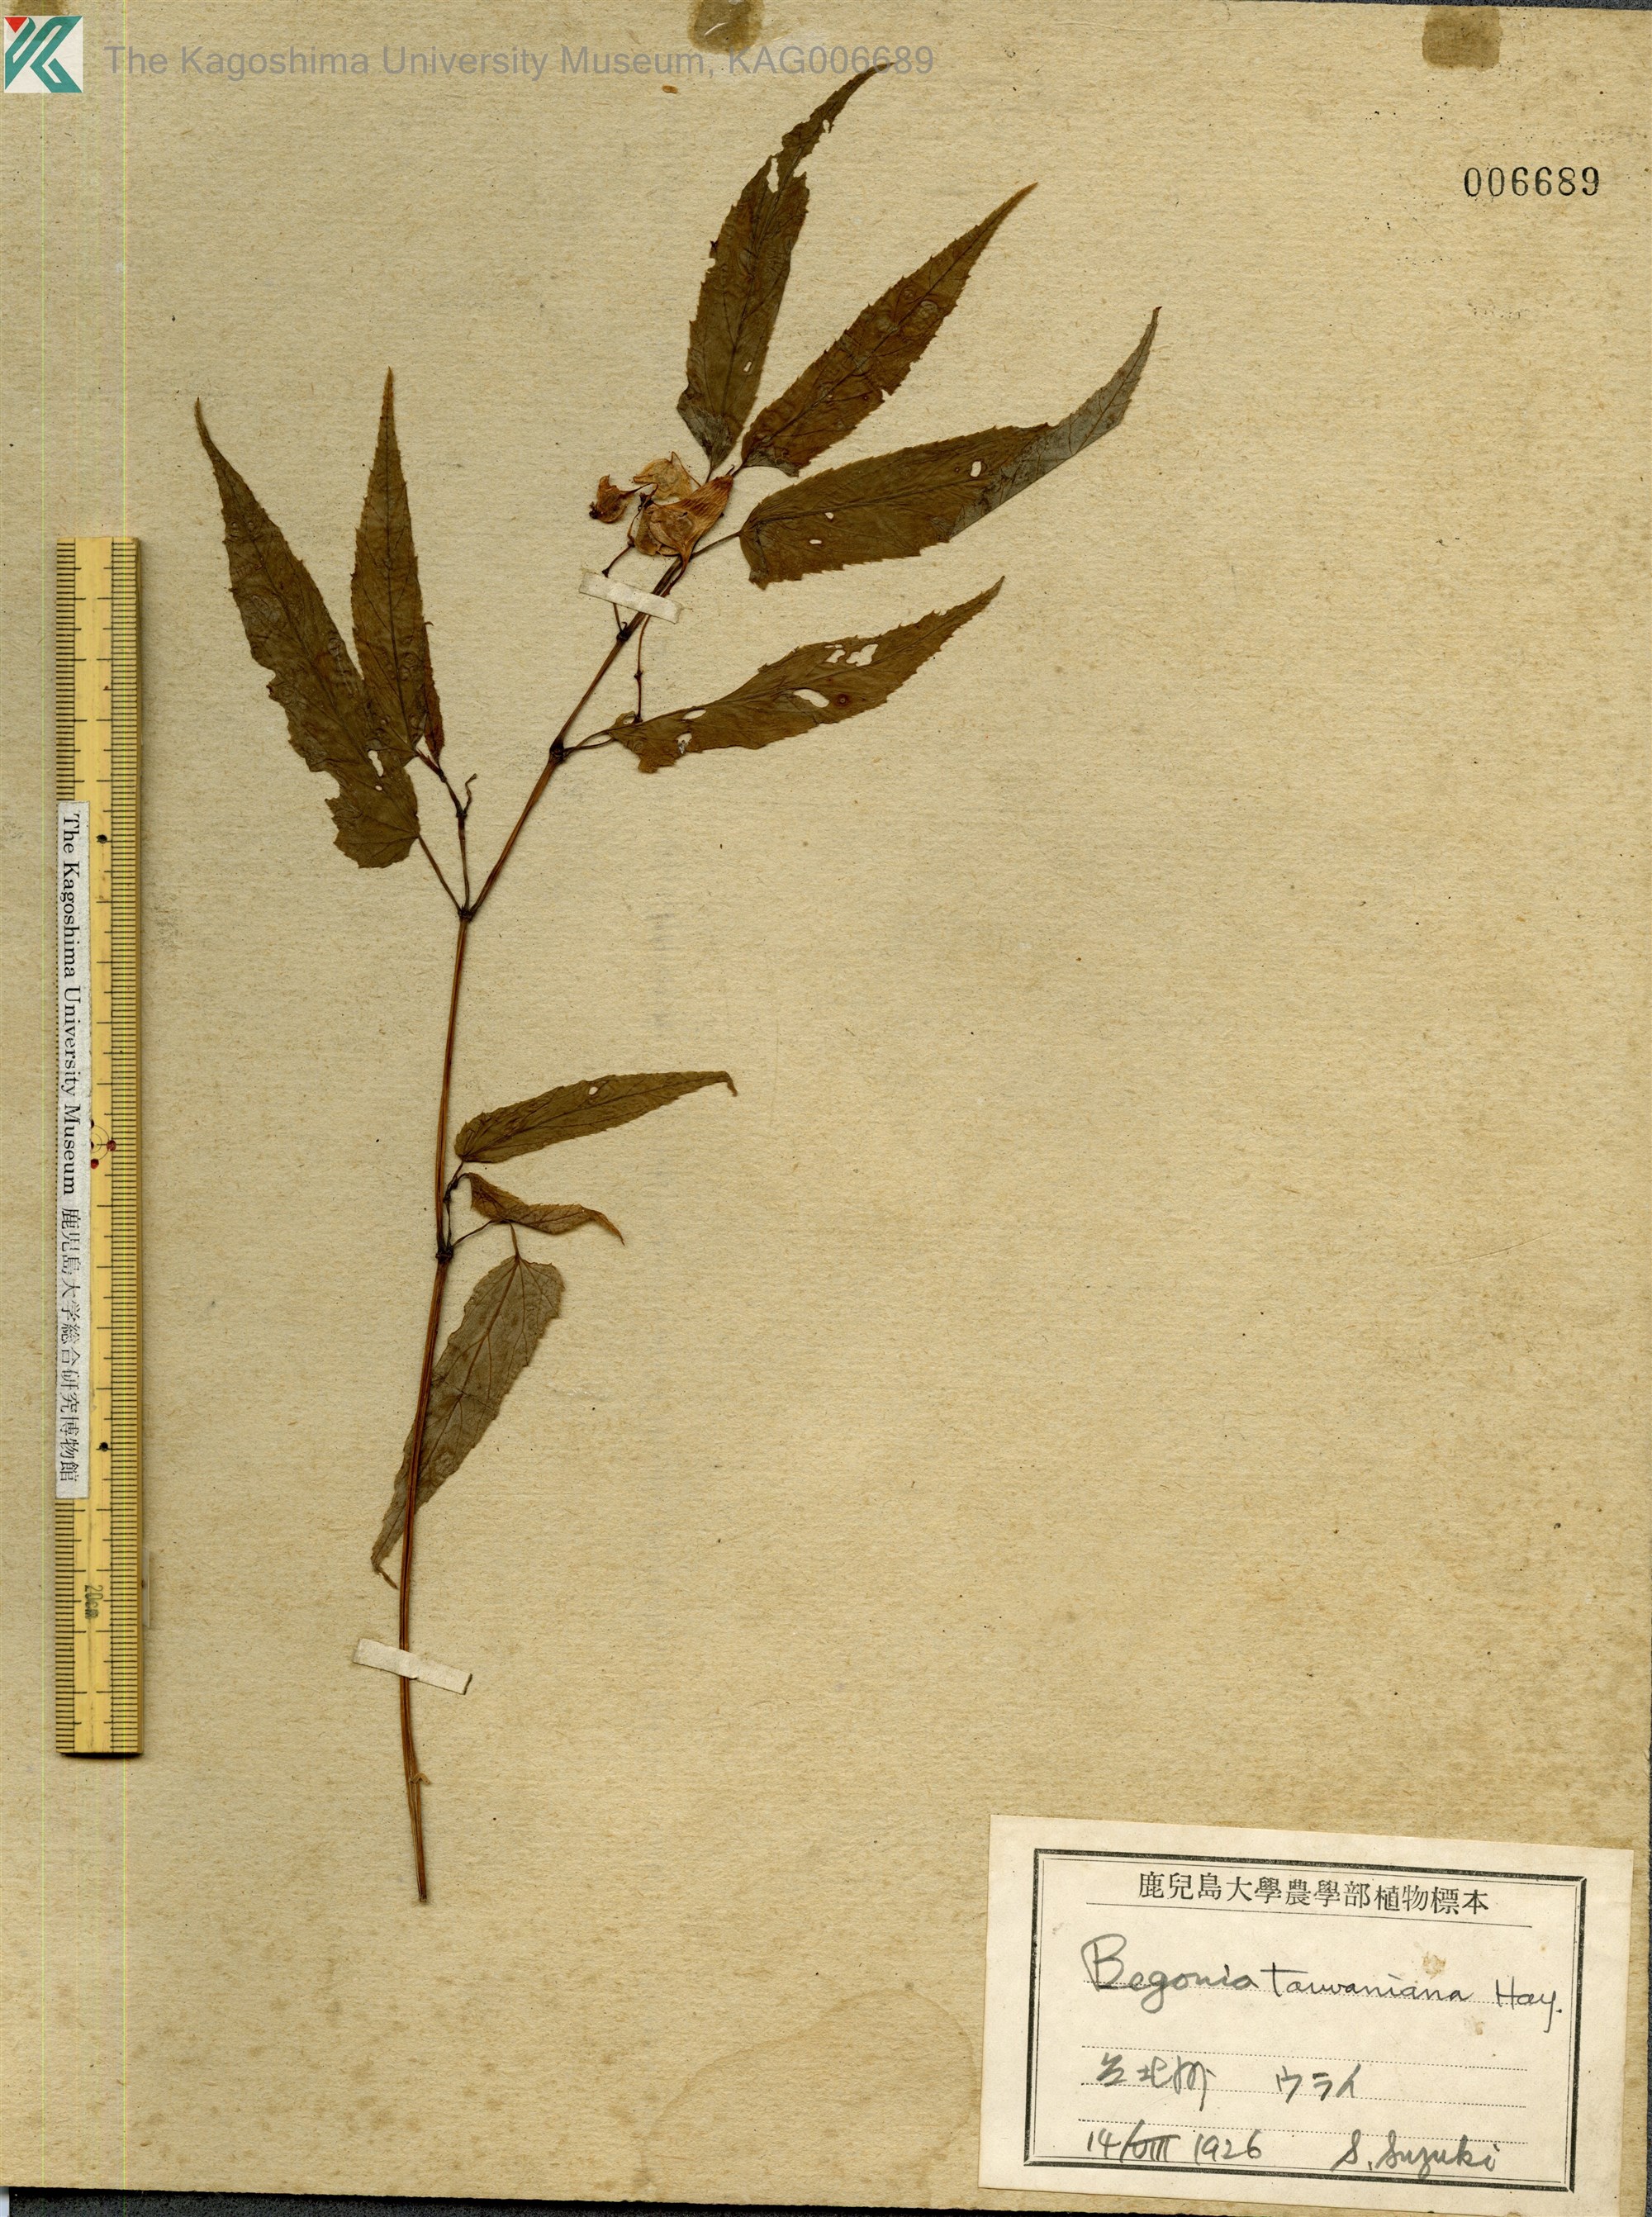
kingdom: Plantae
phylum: Tracheophyta
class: Magnoliopsida
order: Cucurbitales
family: Begoniaceae
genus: Begonia
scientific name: Begonia taiwaniana
